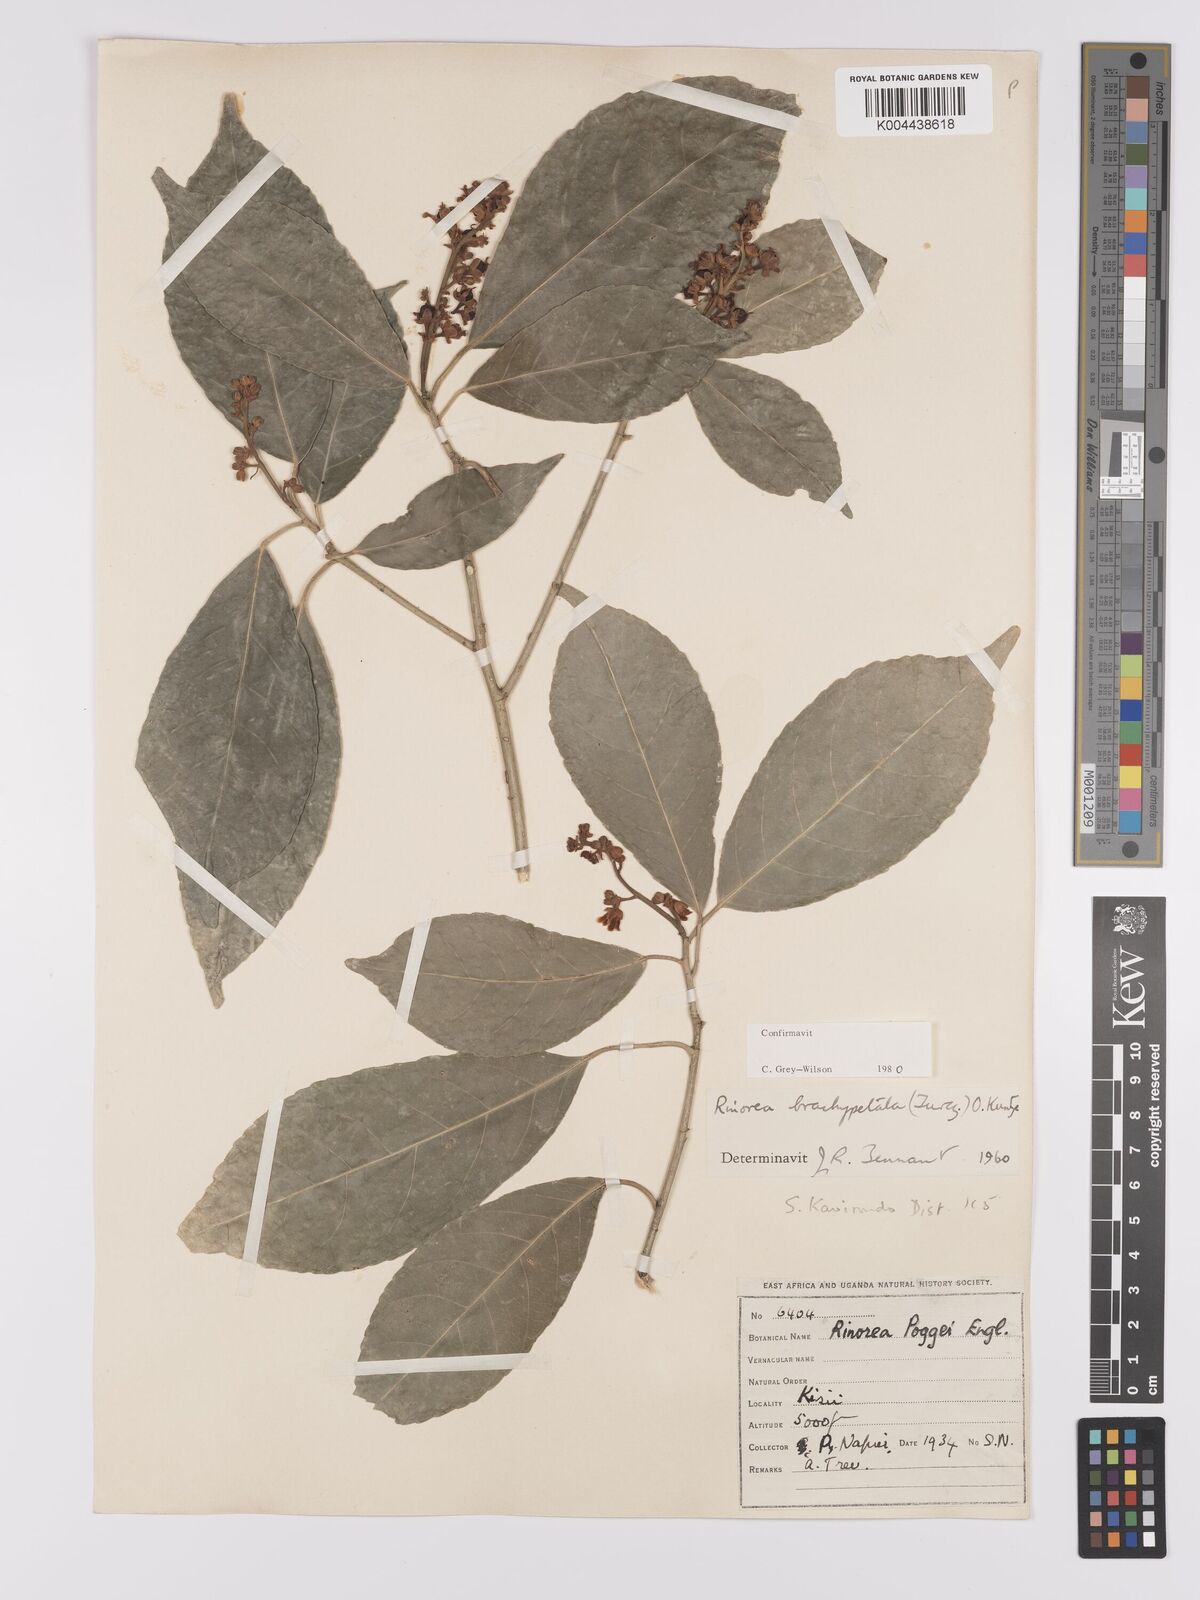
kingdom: Plantae
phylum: Tracheophyta
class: Magnoliopsida
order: Malpighiales
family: Violaceae
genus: Rinorea
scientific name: Rinorea brachypetala
